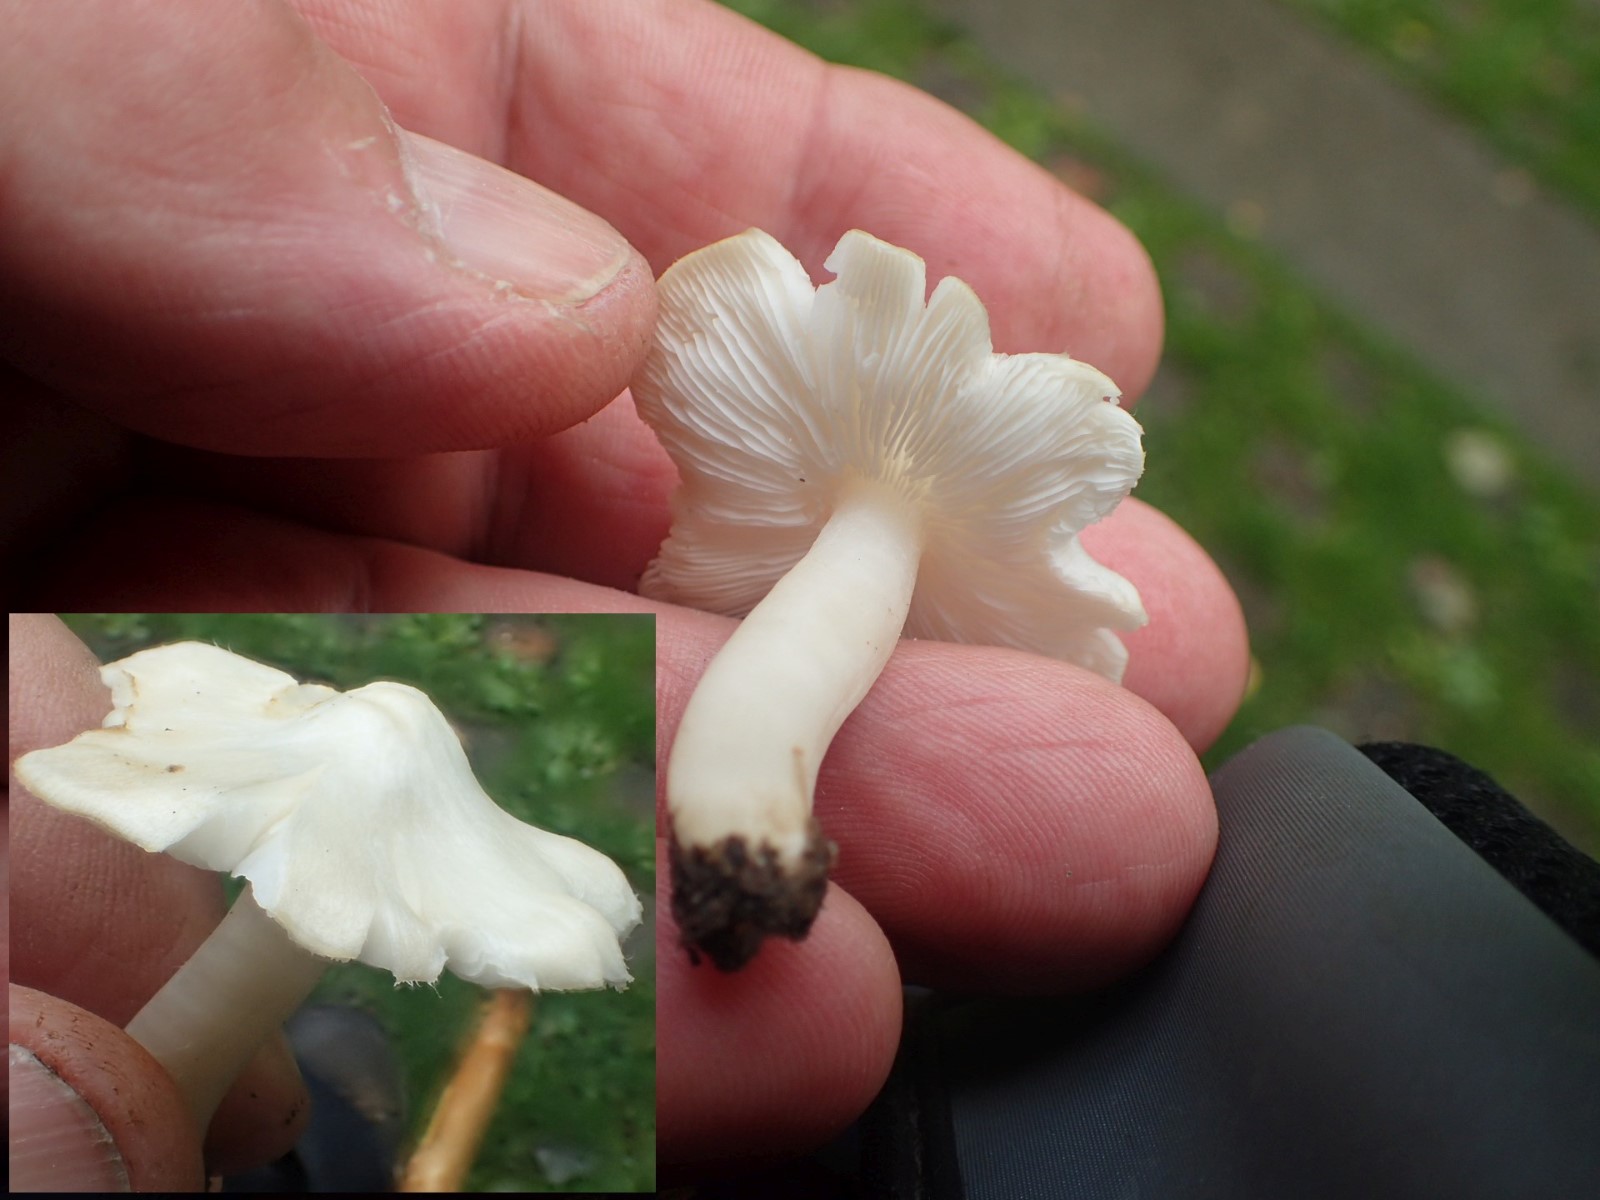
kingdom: Fungi
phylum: Basidiomycota
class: Agaricomycetes
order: Agaricales
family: Tricholomataceae
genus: Tricholoma
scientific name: Tricholoma argyraceum
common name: spids ridderhat
